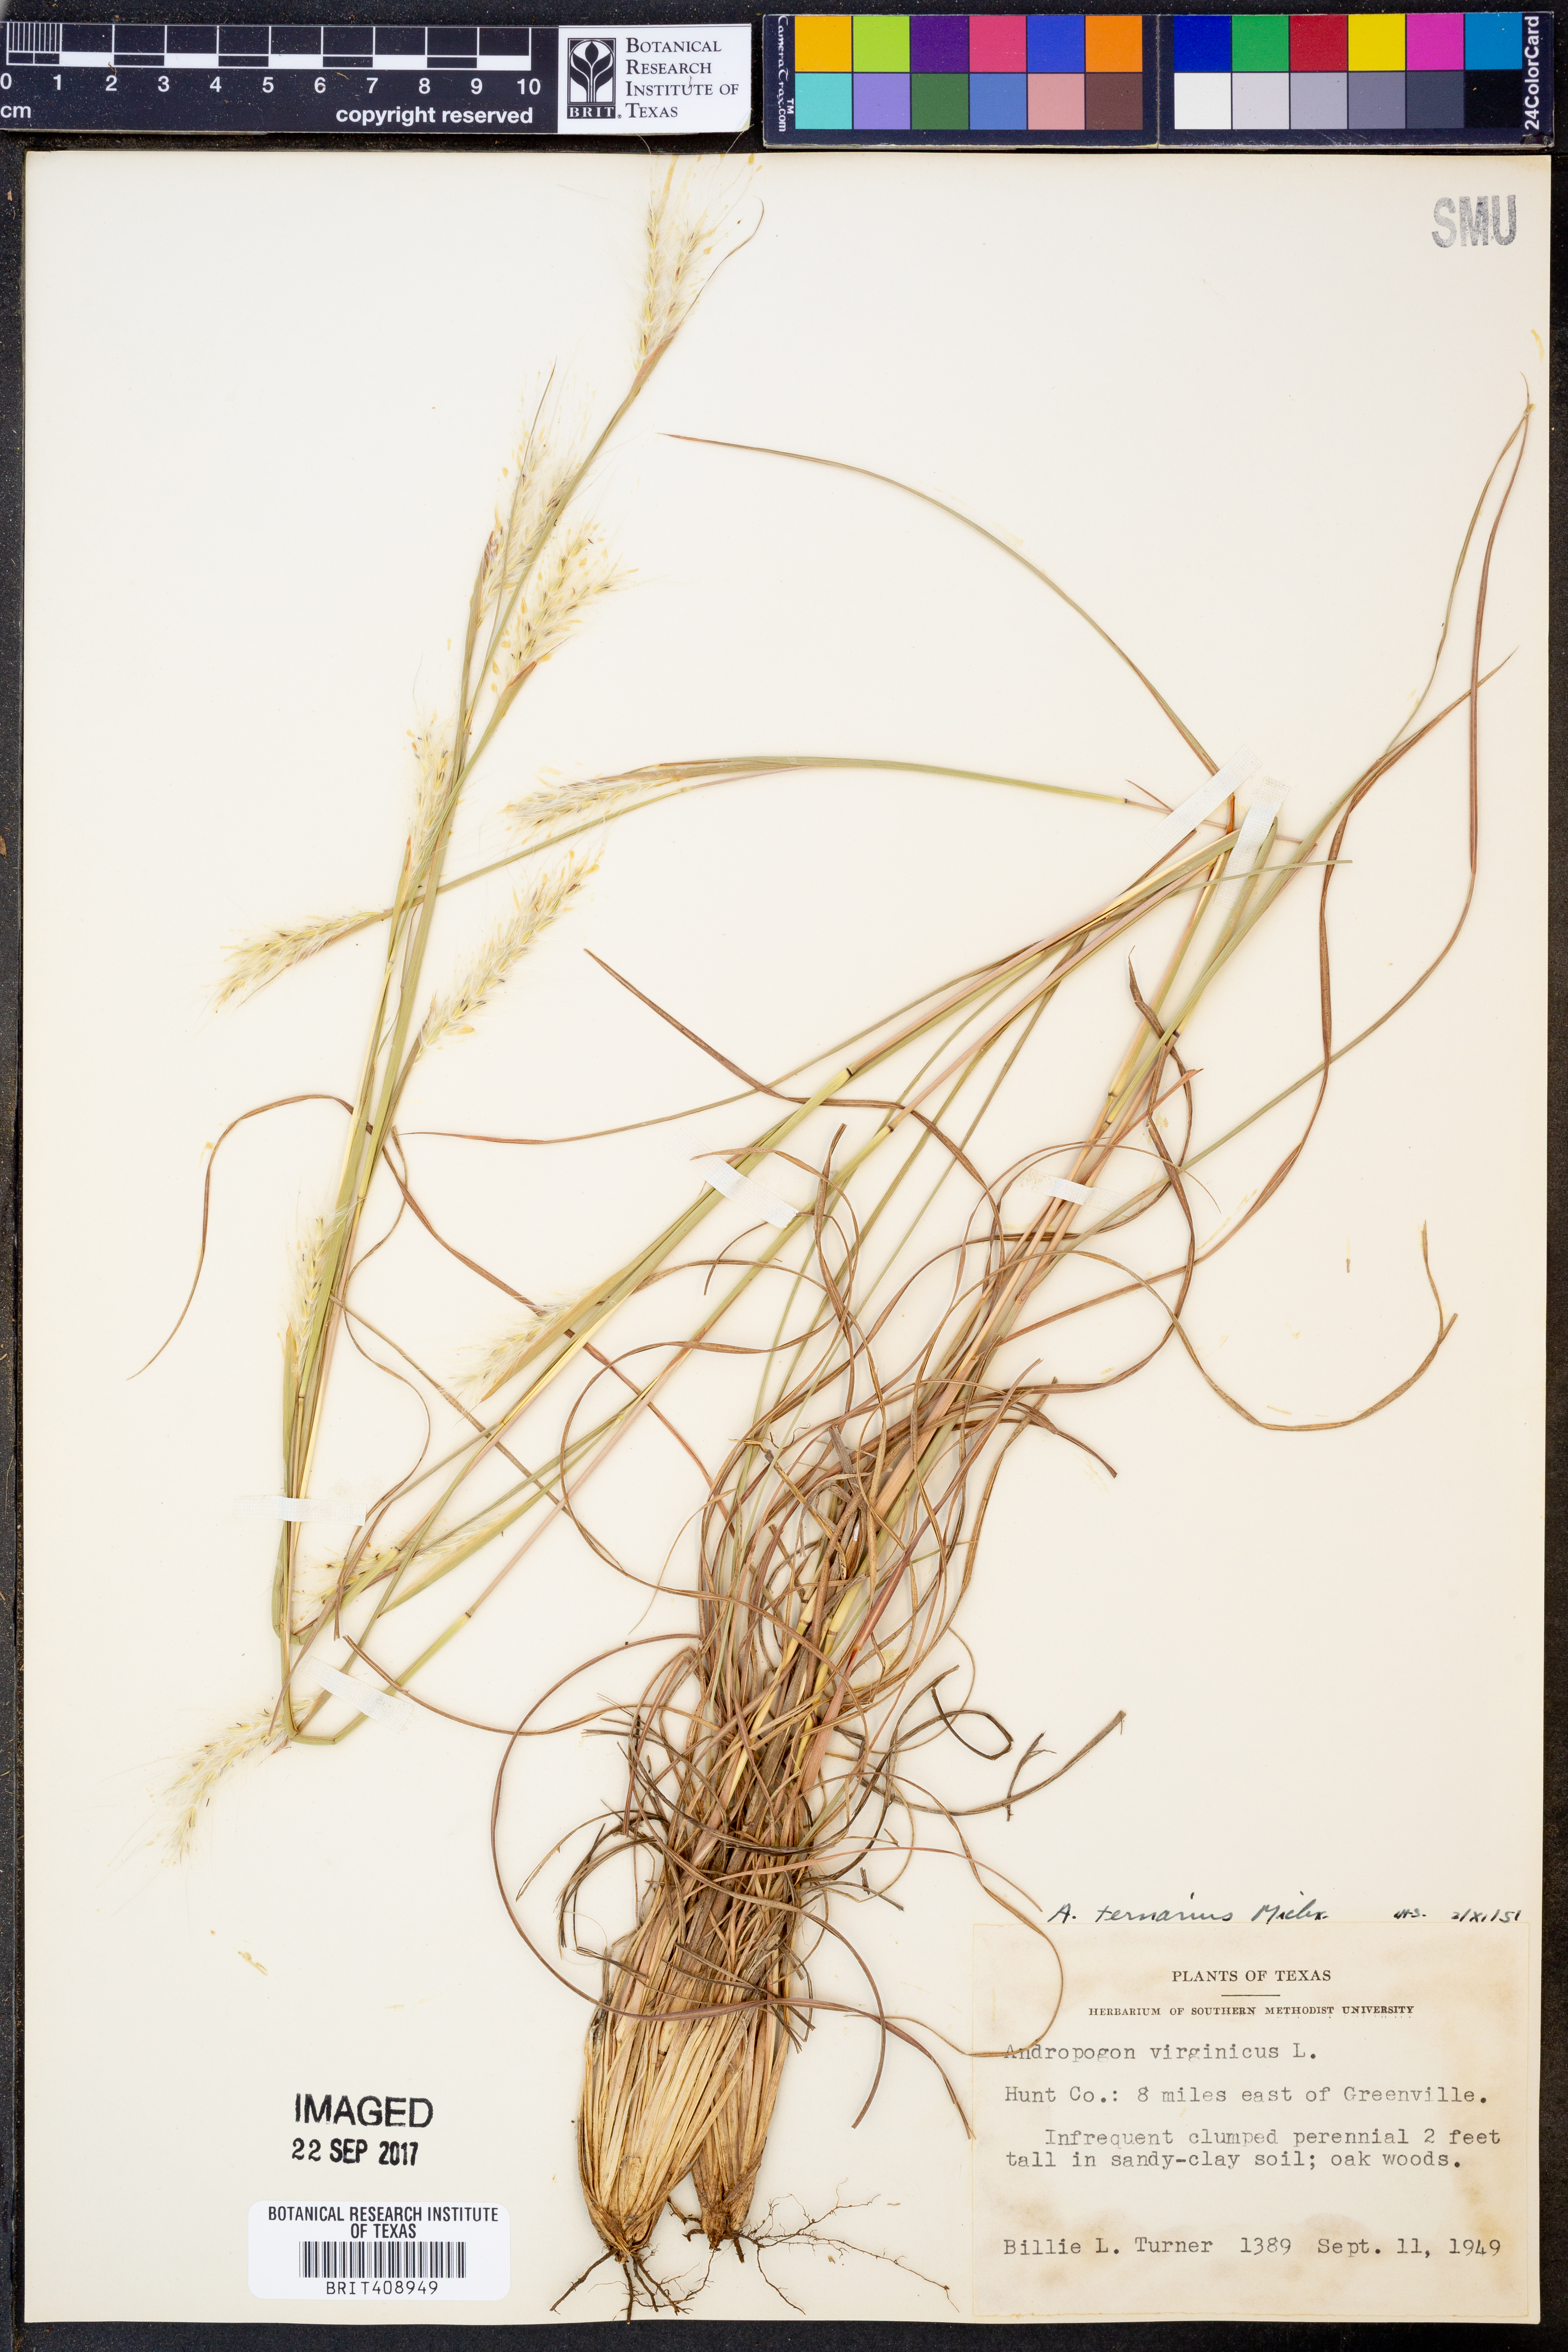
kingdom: Plantae
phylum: Tracheophyta
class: Liliopsida
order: Poales
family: Poaceae
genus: Andropogon
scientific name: Andropogon ternarius
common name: Split bluestem
